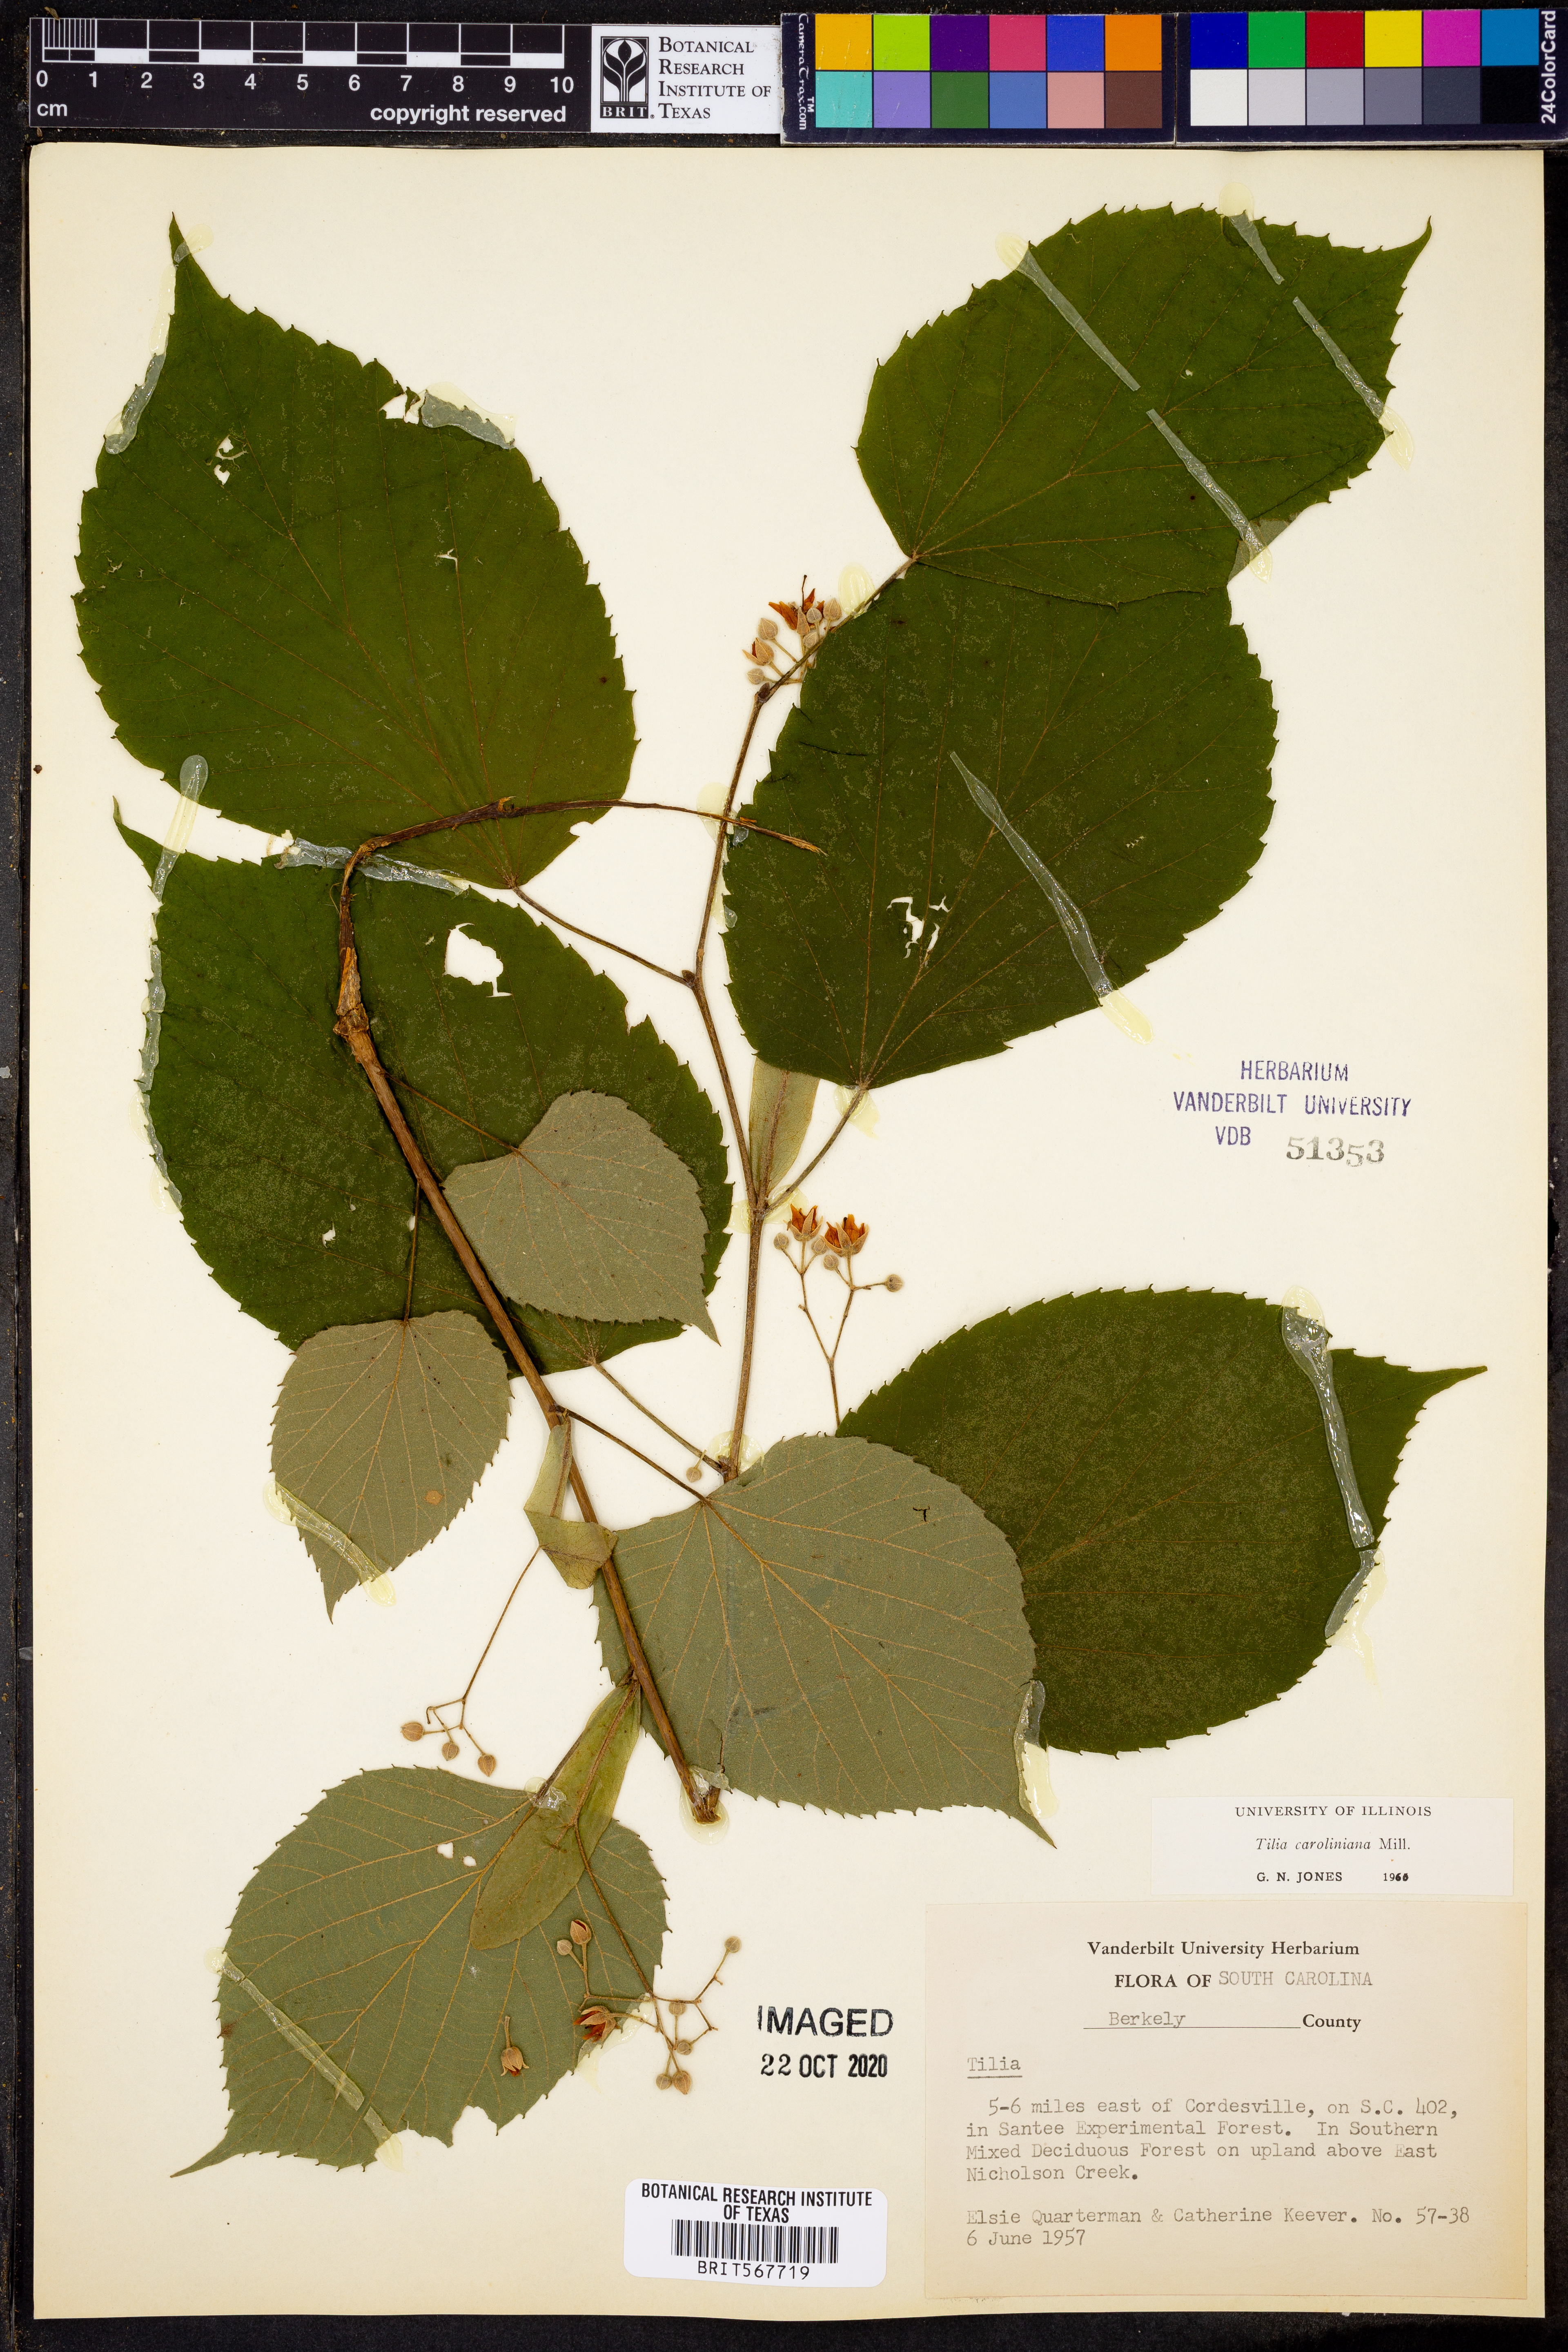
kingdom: Plantae
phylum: Tracheophyta
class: Magnoliopsida
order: Malvales
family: Malvaceae
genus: Tilia
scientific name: Tilia americana
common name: Basswood
